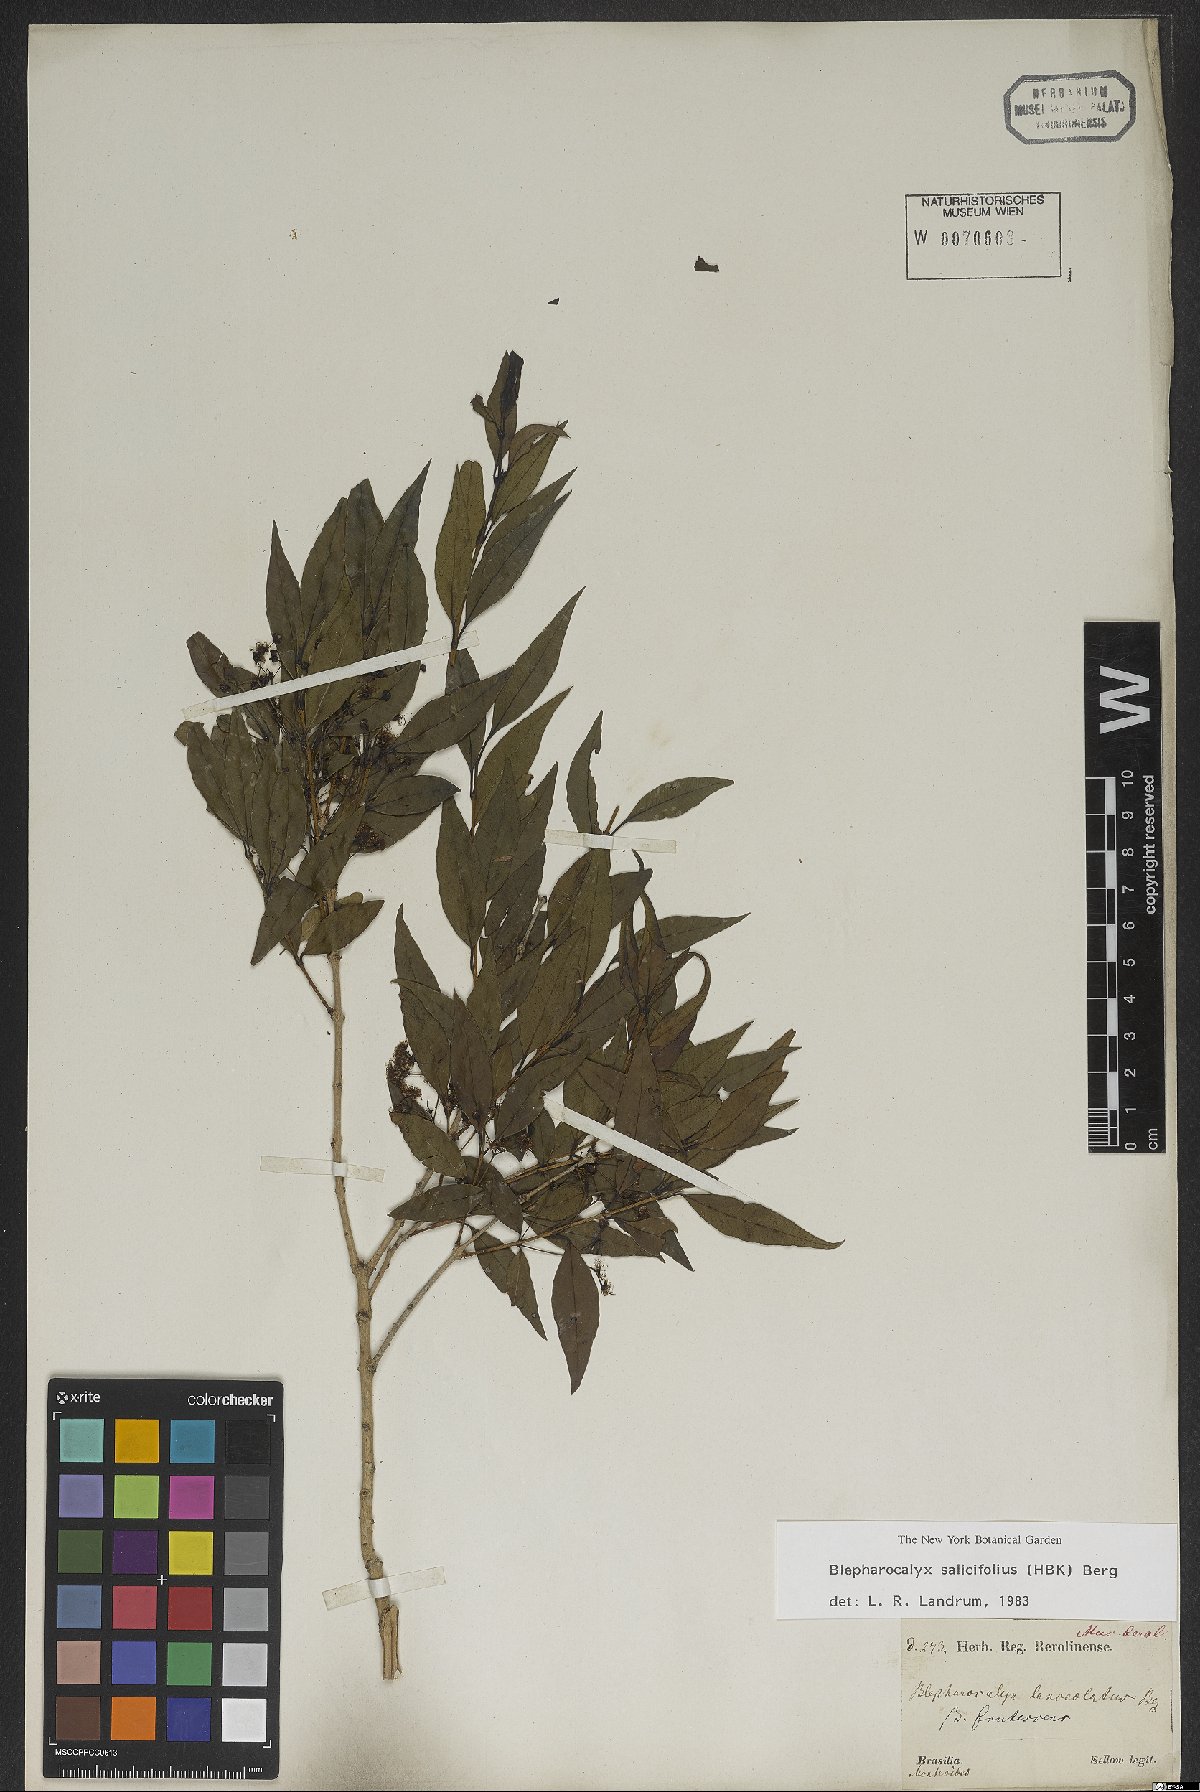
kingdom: Plantae
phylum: Tracheophyta
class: Magnoliopsida
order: Myrtales
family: Myrtaceae
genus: Blepharocalyx
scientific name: Blepharocalyx salicifolius
